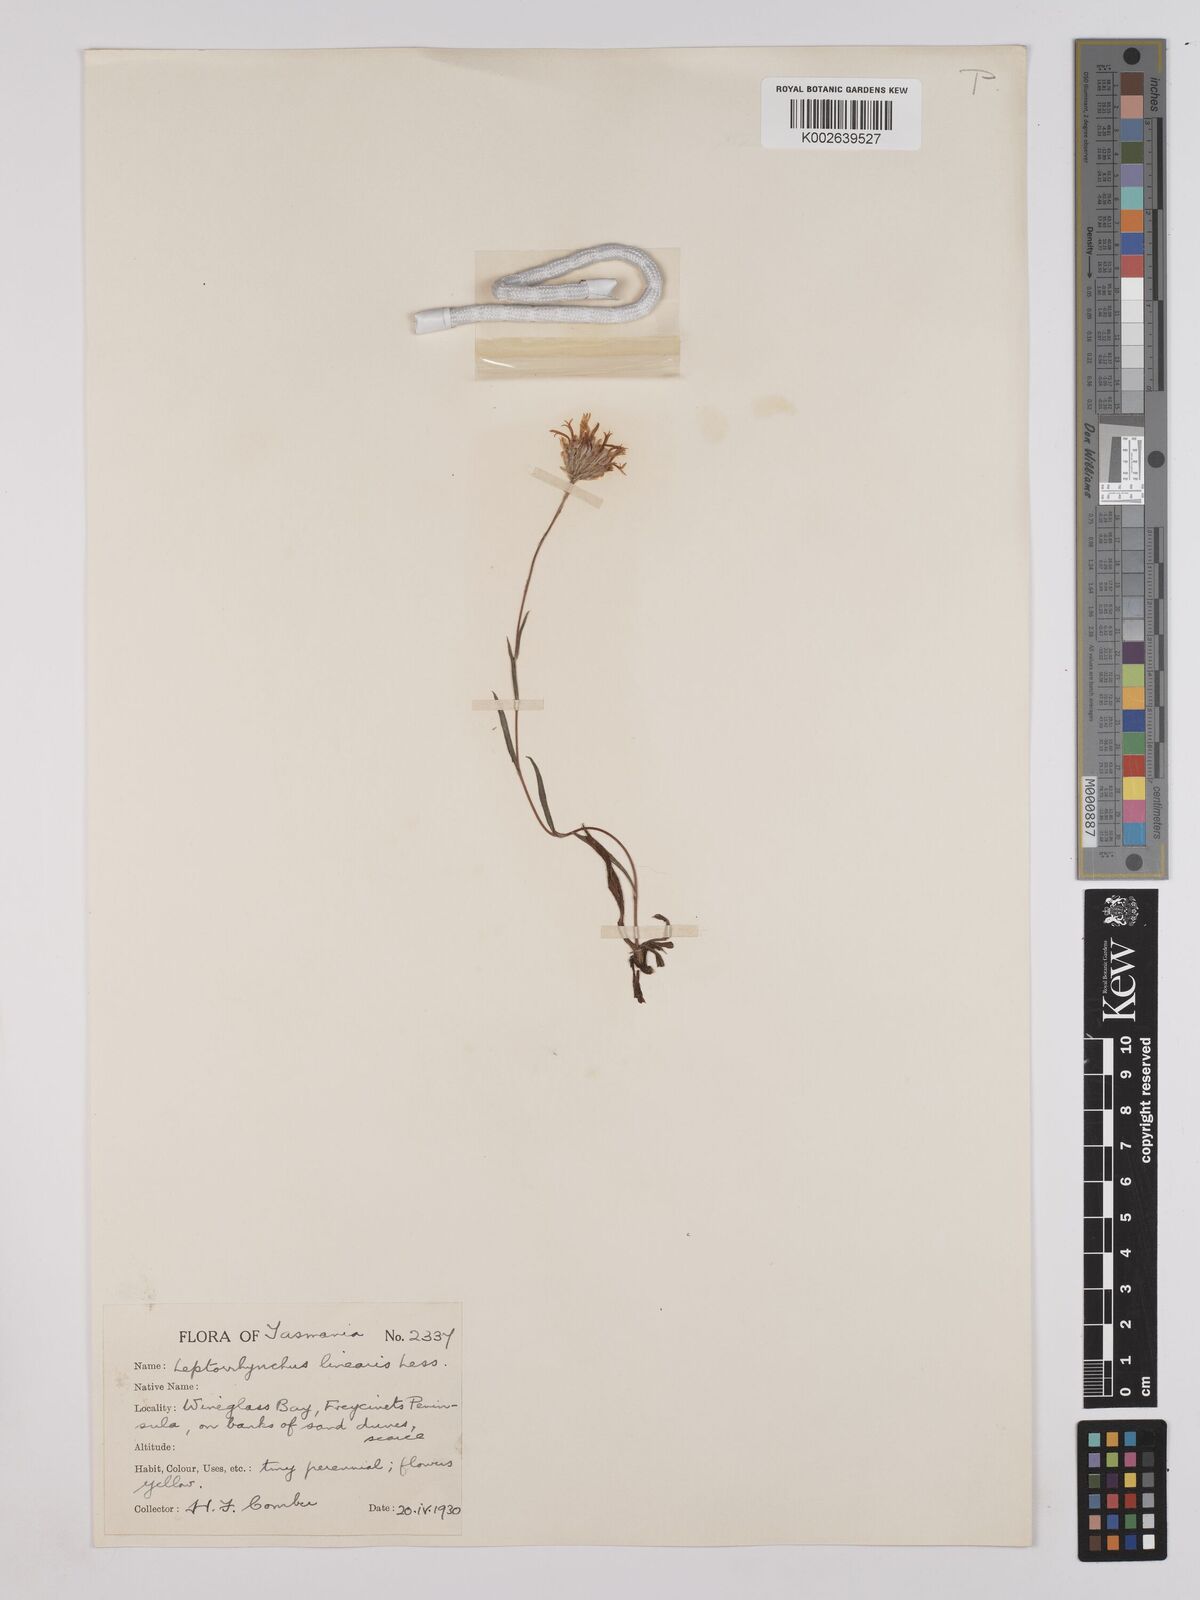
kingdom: Plantae
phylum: Tracheophyta
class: Magnoliopsida
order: Asterales
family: Asteraceae
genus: Leptorhynchos
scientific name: Leptorhynchos nitidulus
